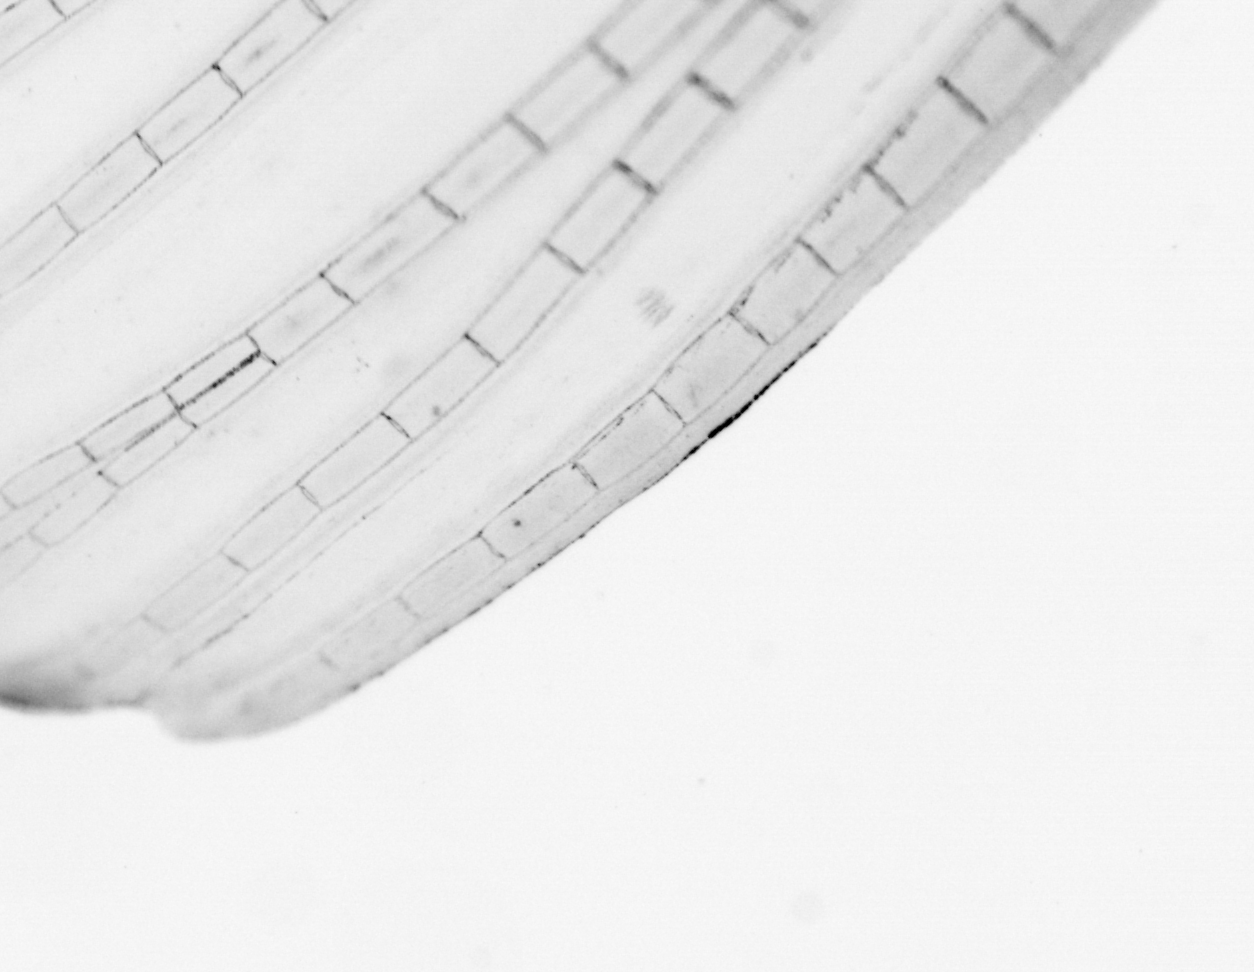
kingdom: Animalia
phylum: Chordata
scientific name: Chordata
